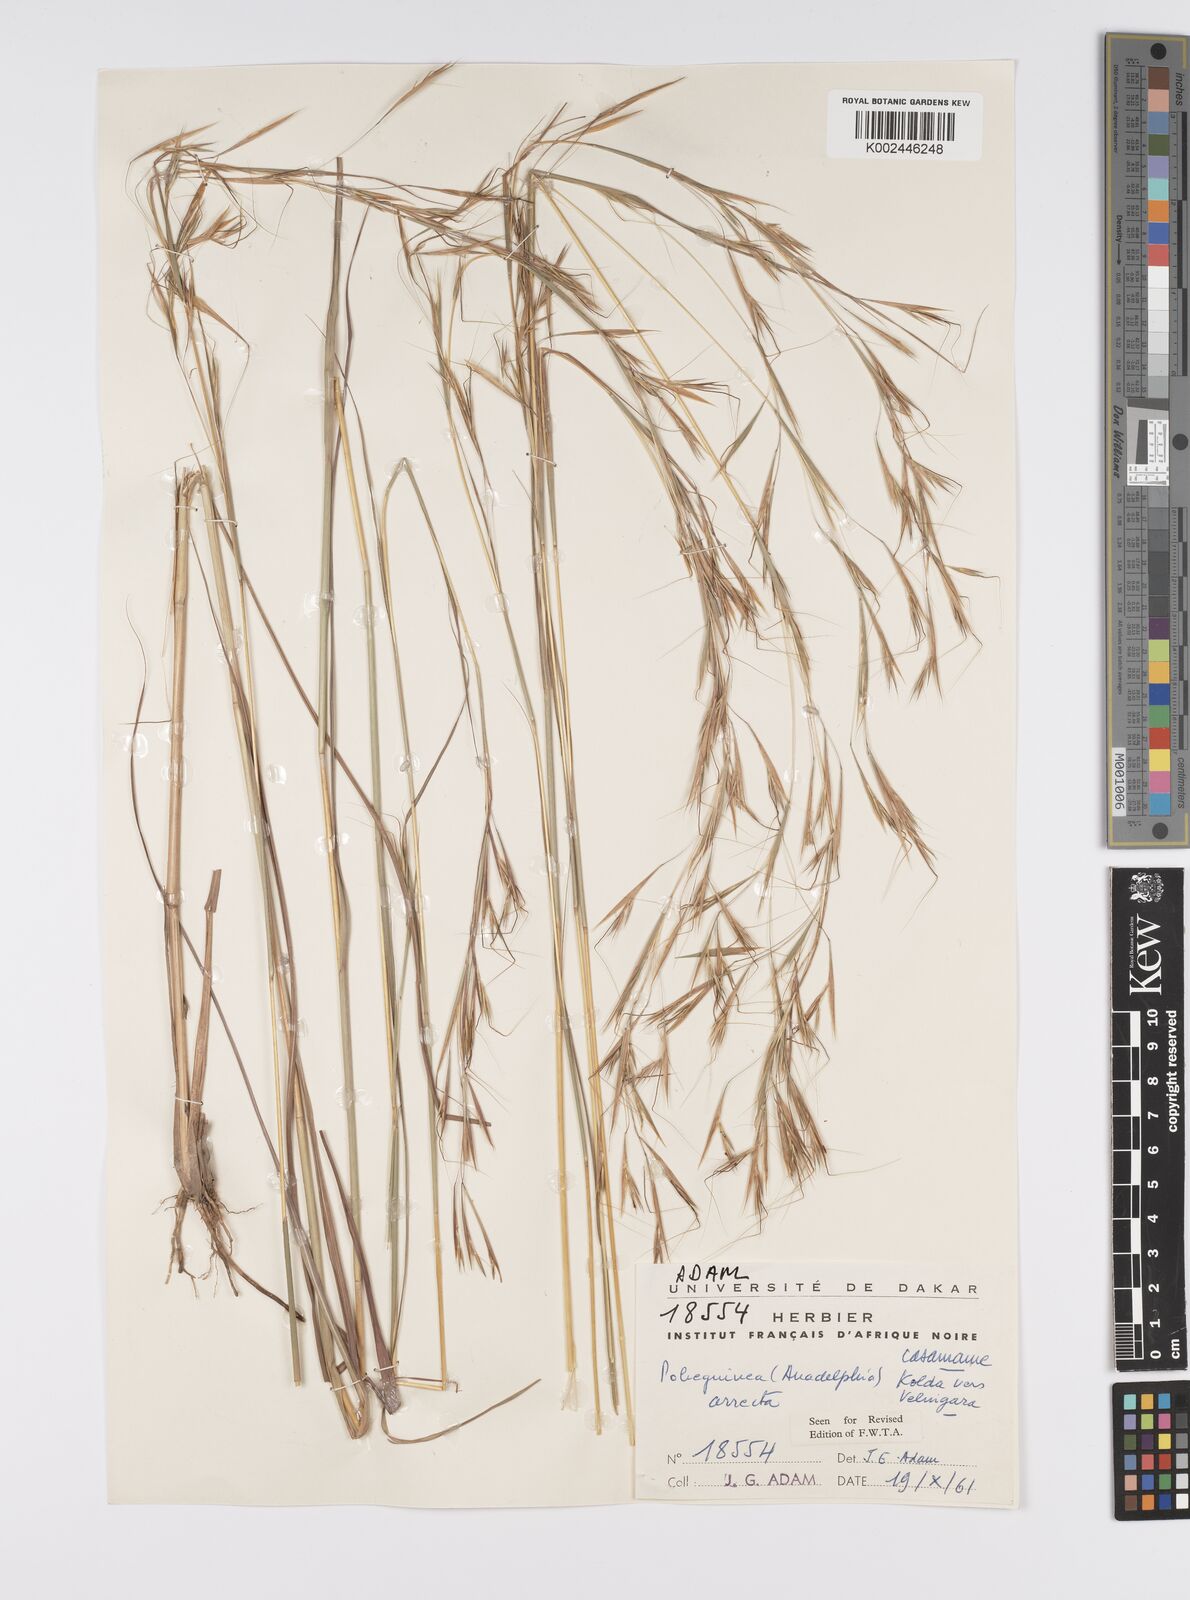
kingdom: Plantae
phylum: Tracheophyta
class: Liliopsida
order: Poales
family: Poaceae
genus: Anadelphia
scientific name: Anadelphia afzeliana
